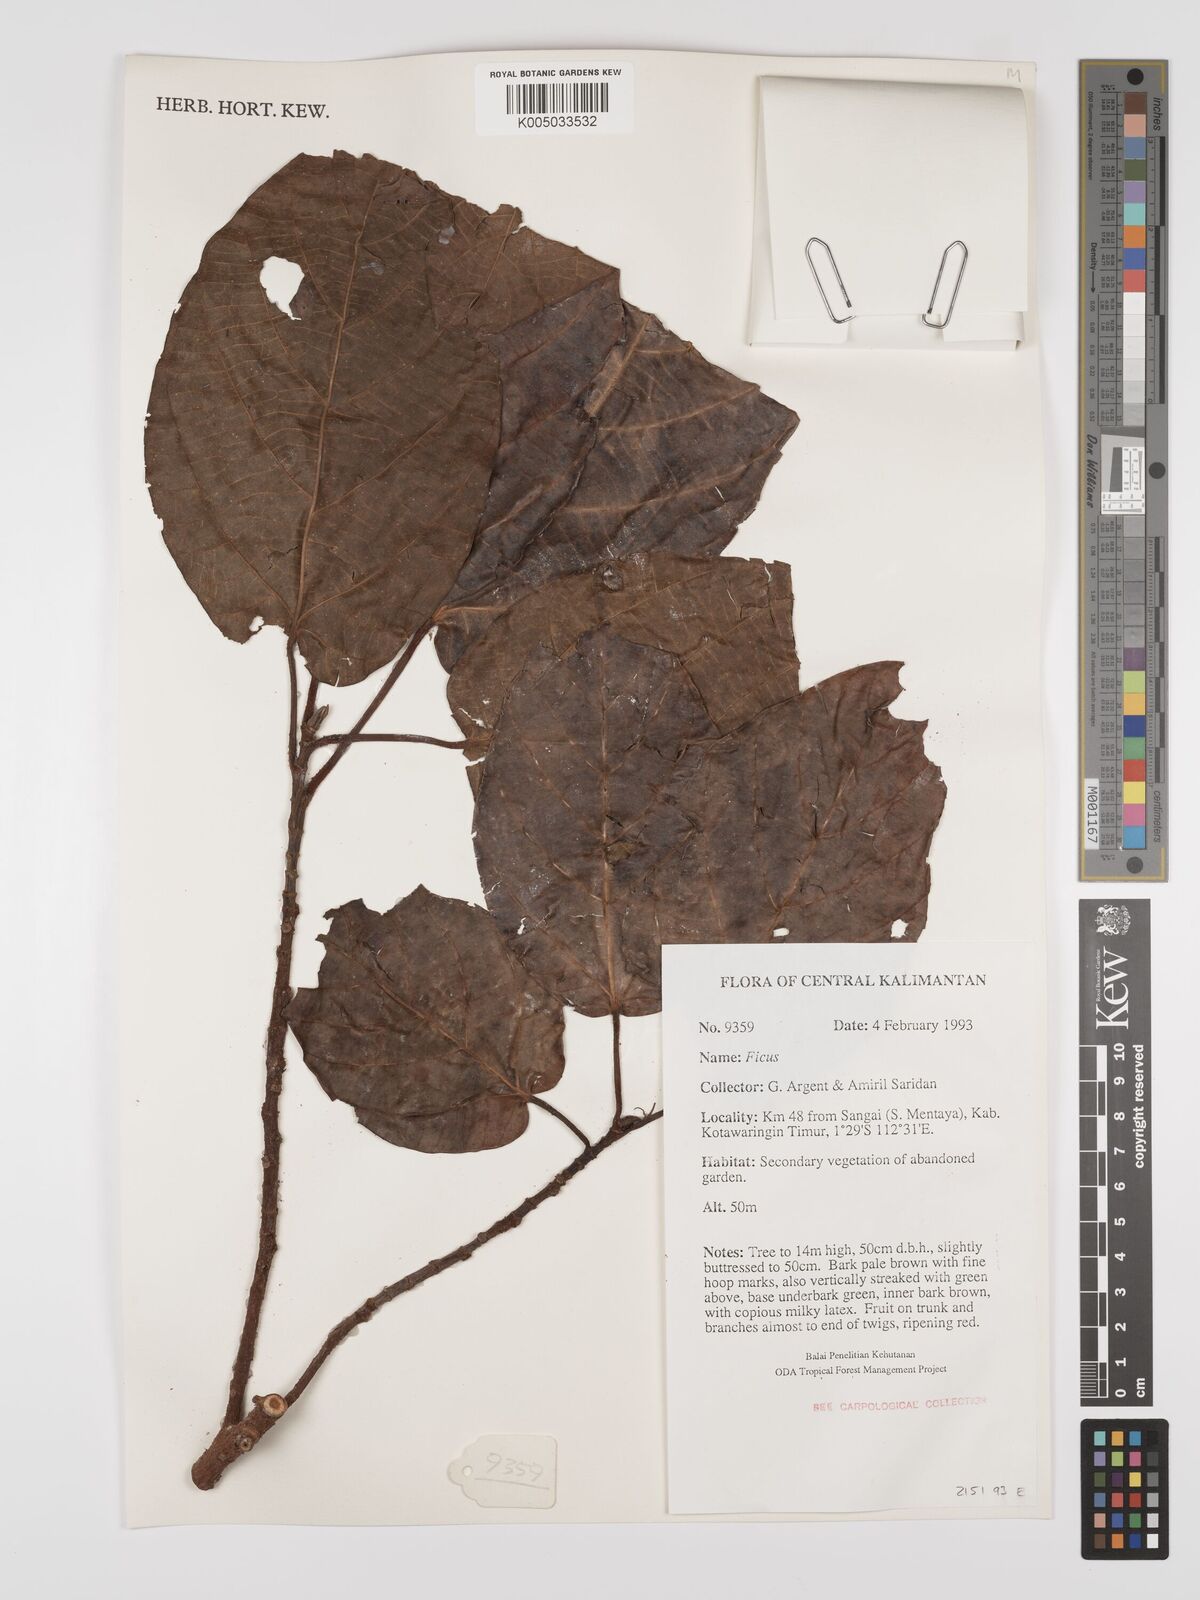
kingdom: Plantae
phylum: Tracheophyta
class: Magnoliopsida
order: Rosales
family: Moraceae
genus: Ficus
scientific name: Ficus
